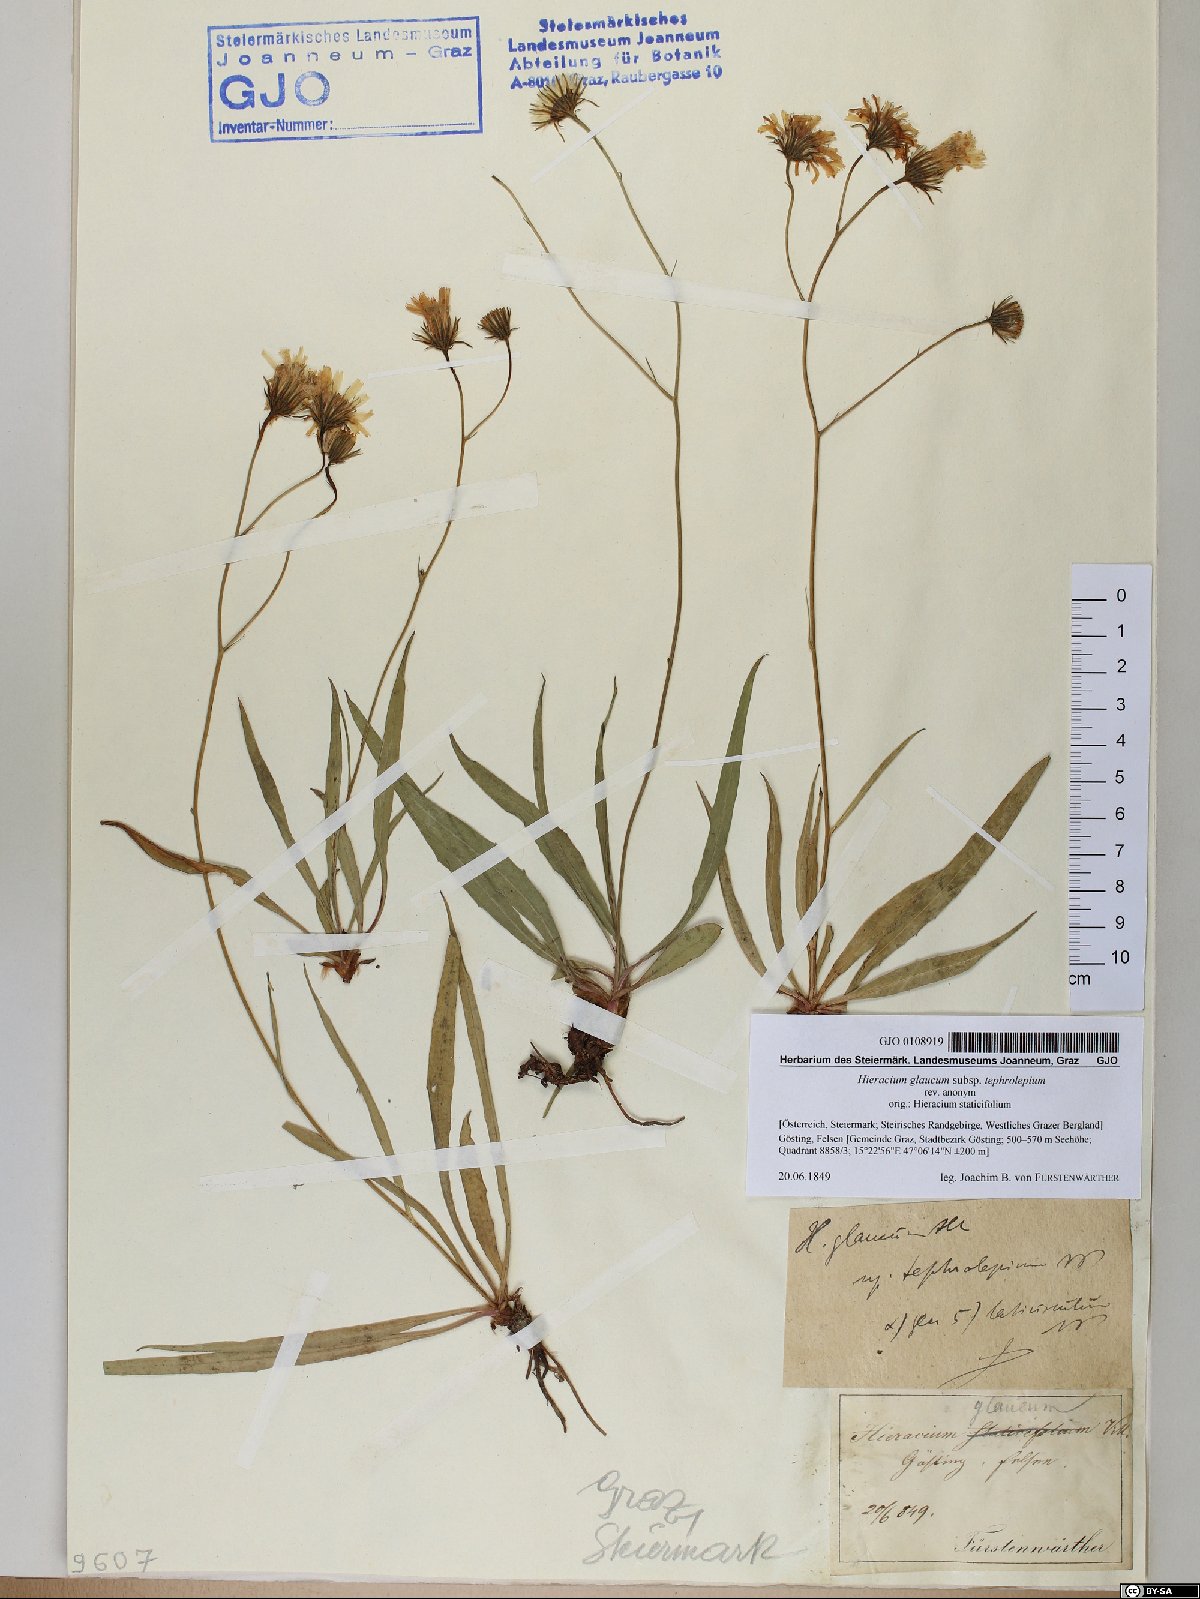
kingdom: Plantae
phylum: Tracheophyta
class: Magnoliopsida
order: Asterales
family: Asteraceae
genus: Hieracium
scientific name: Hieracium glaucum
